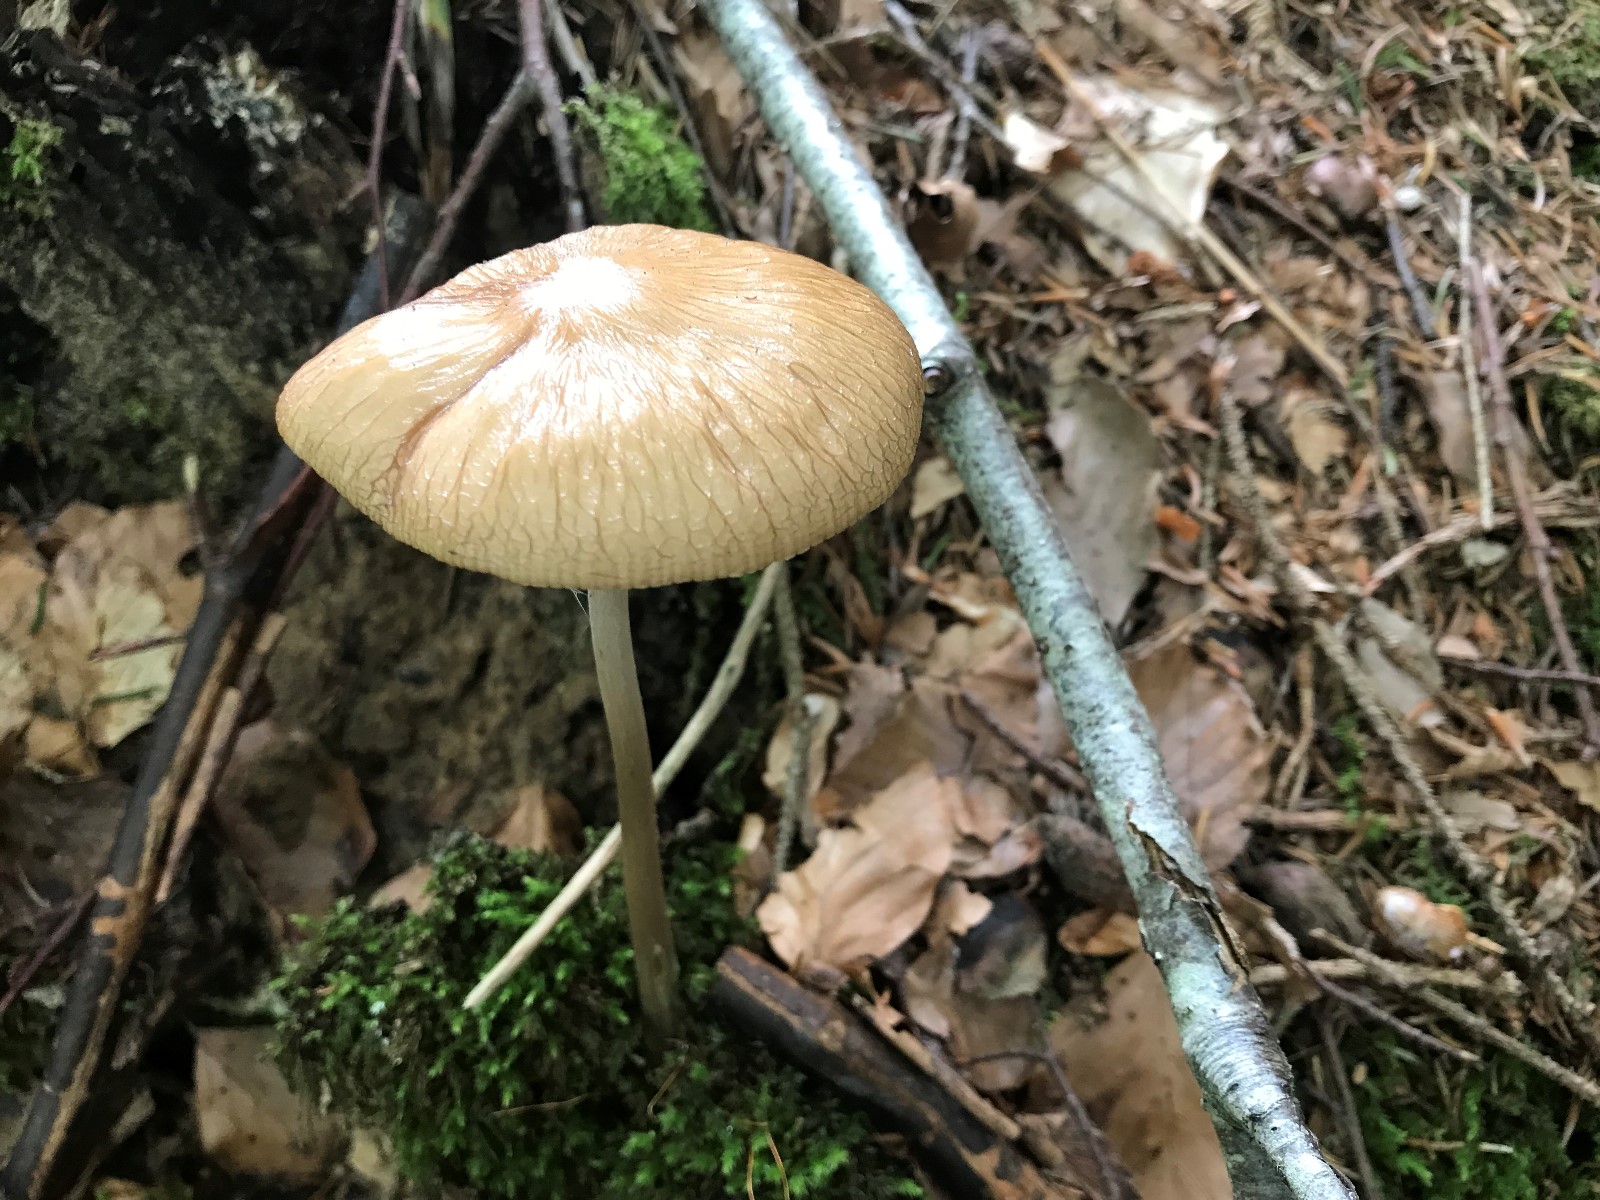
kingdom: Fungi
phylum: Basidiomycota
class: Agaricomycetes
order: Agaricales
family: Physalacriaceae
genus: Hymenopellis
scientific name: Hymenopellis radicata
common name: almindelig pælerodshat
